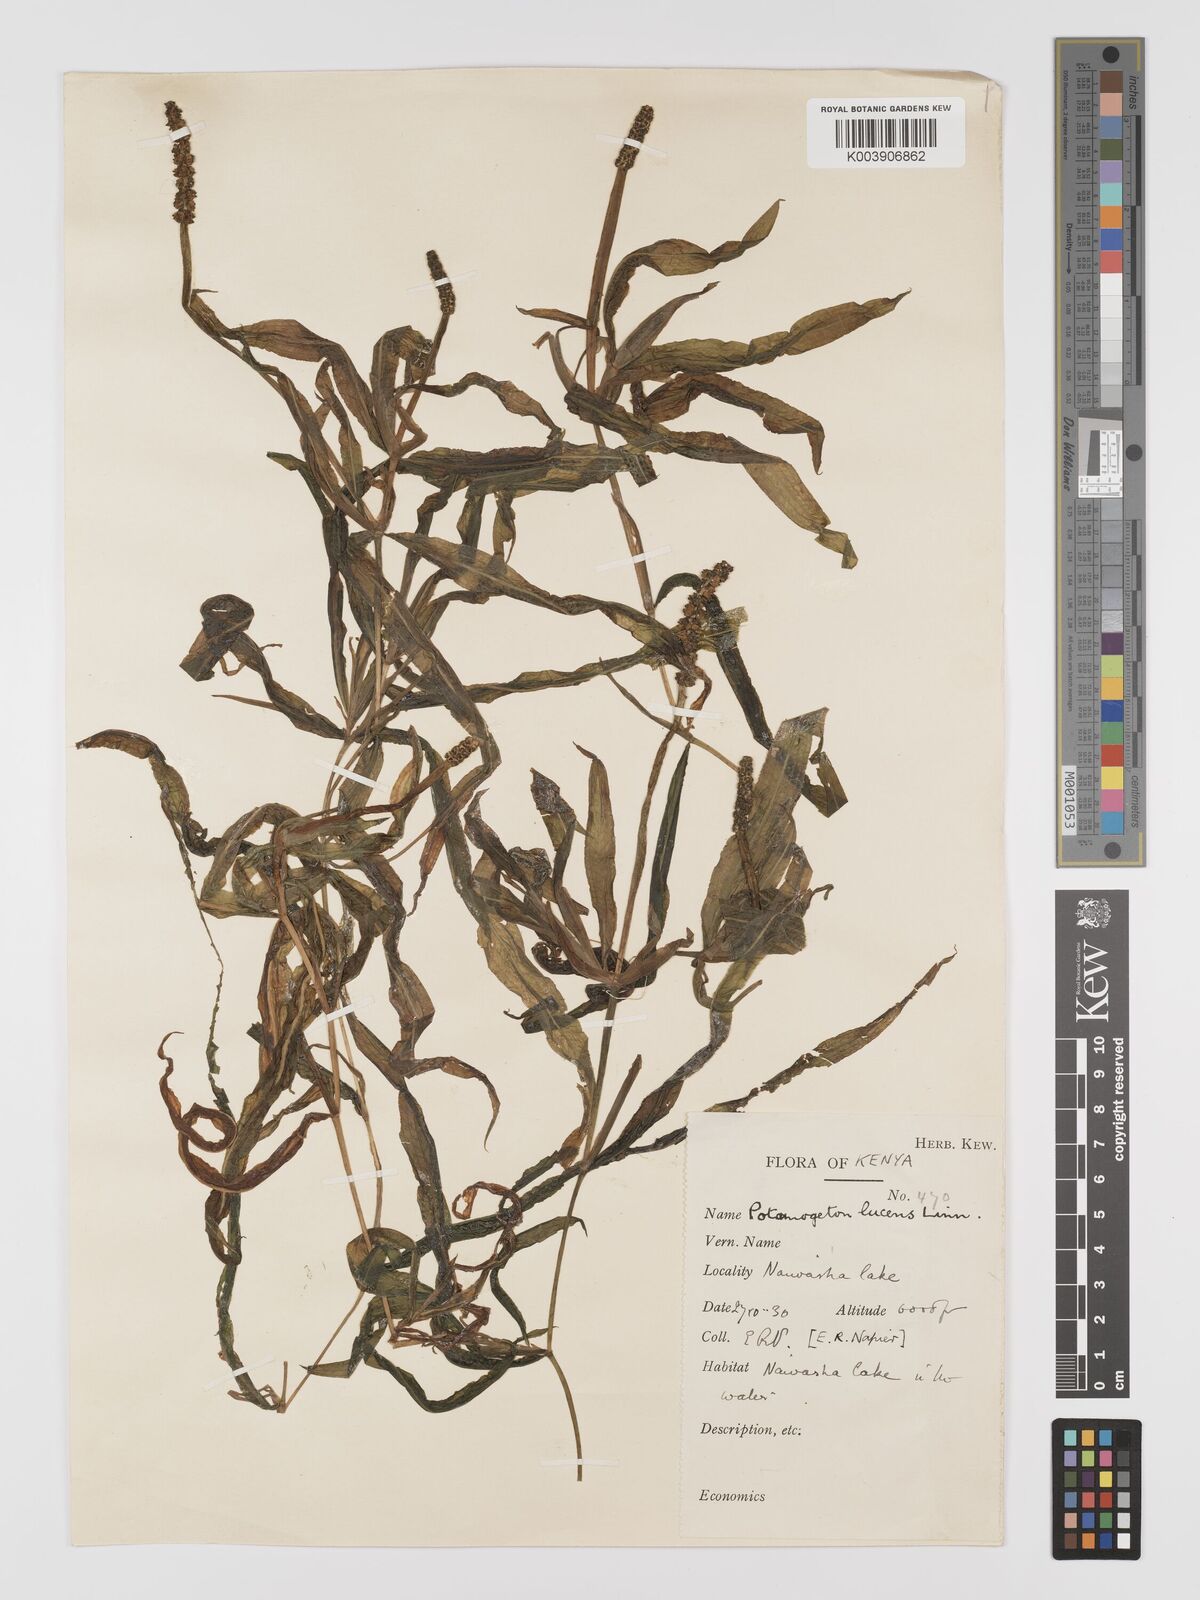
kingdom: Plantae
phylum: Tracheophyta
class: Liliopsida
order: Alismatales
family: Potamogetonaceae
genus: Potamogeton
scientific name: Potamogeton schweinfurthii
